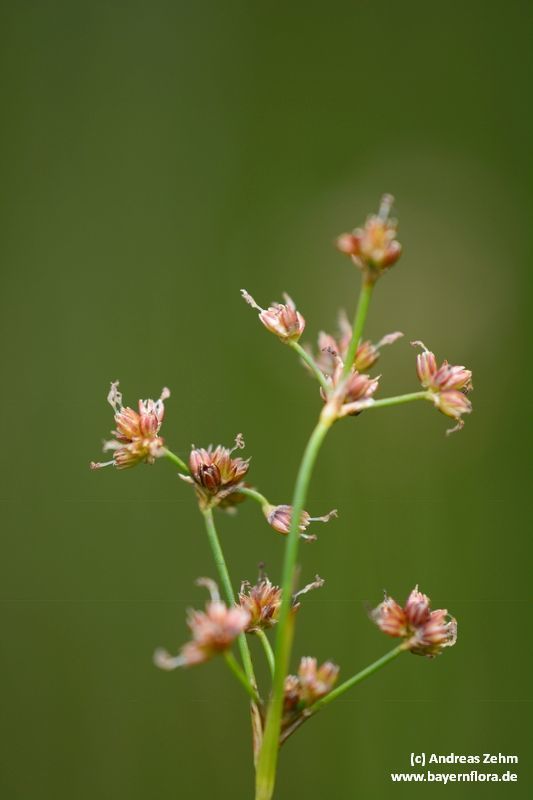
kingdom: Plantae
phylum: Tracheophyta
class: Liliopsida
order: Poales
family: Juncaceae
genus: Juncus
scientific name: Juncus subnodulosus
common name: Blunt-flowered rush
